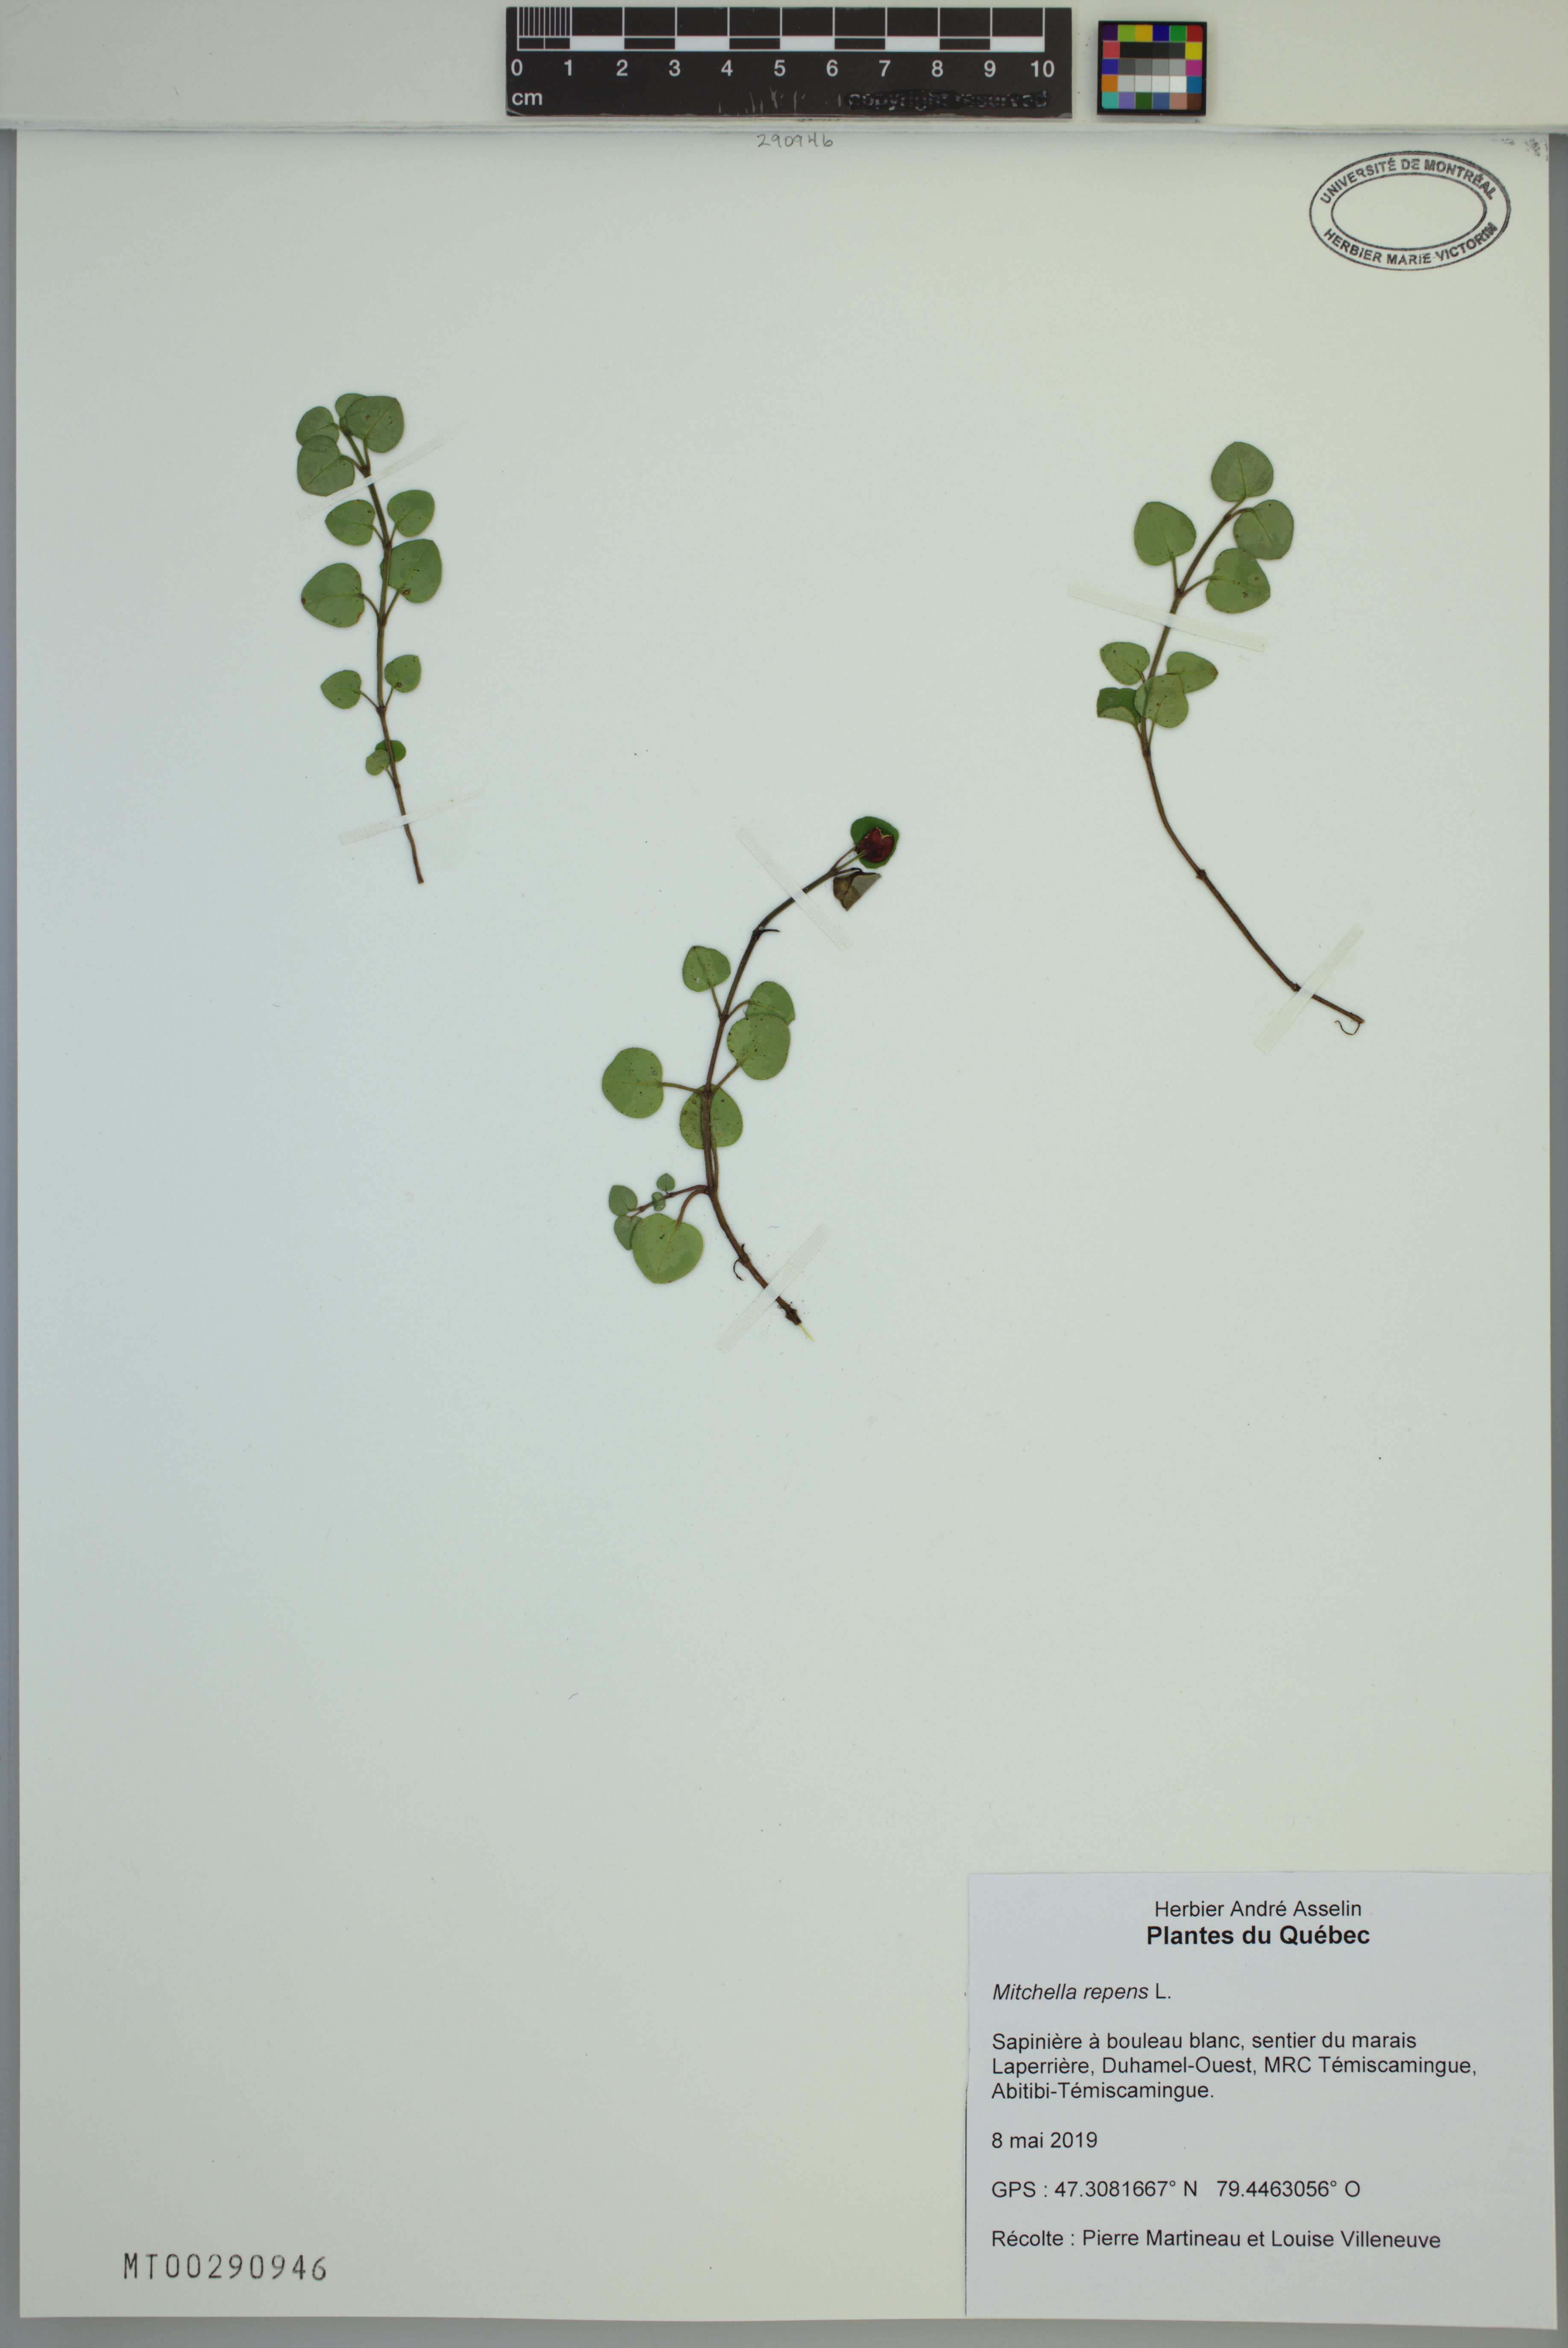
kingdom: Plantae
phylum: Tracheophyta
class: Magnoliopsida
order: Gentianales
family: Rubiaceae
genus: Mitchella
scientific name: Mitchella repens
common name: Partridge-berry
